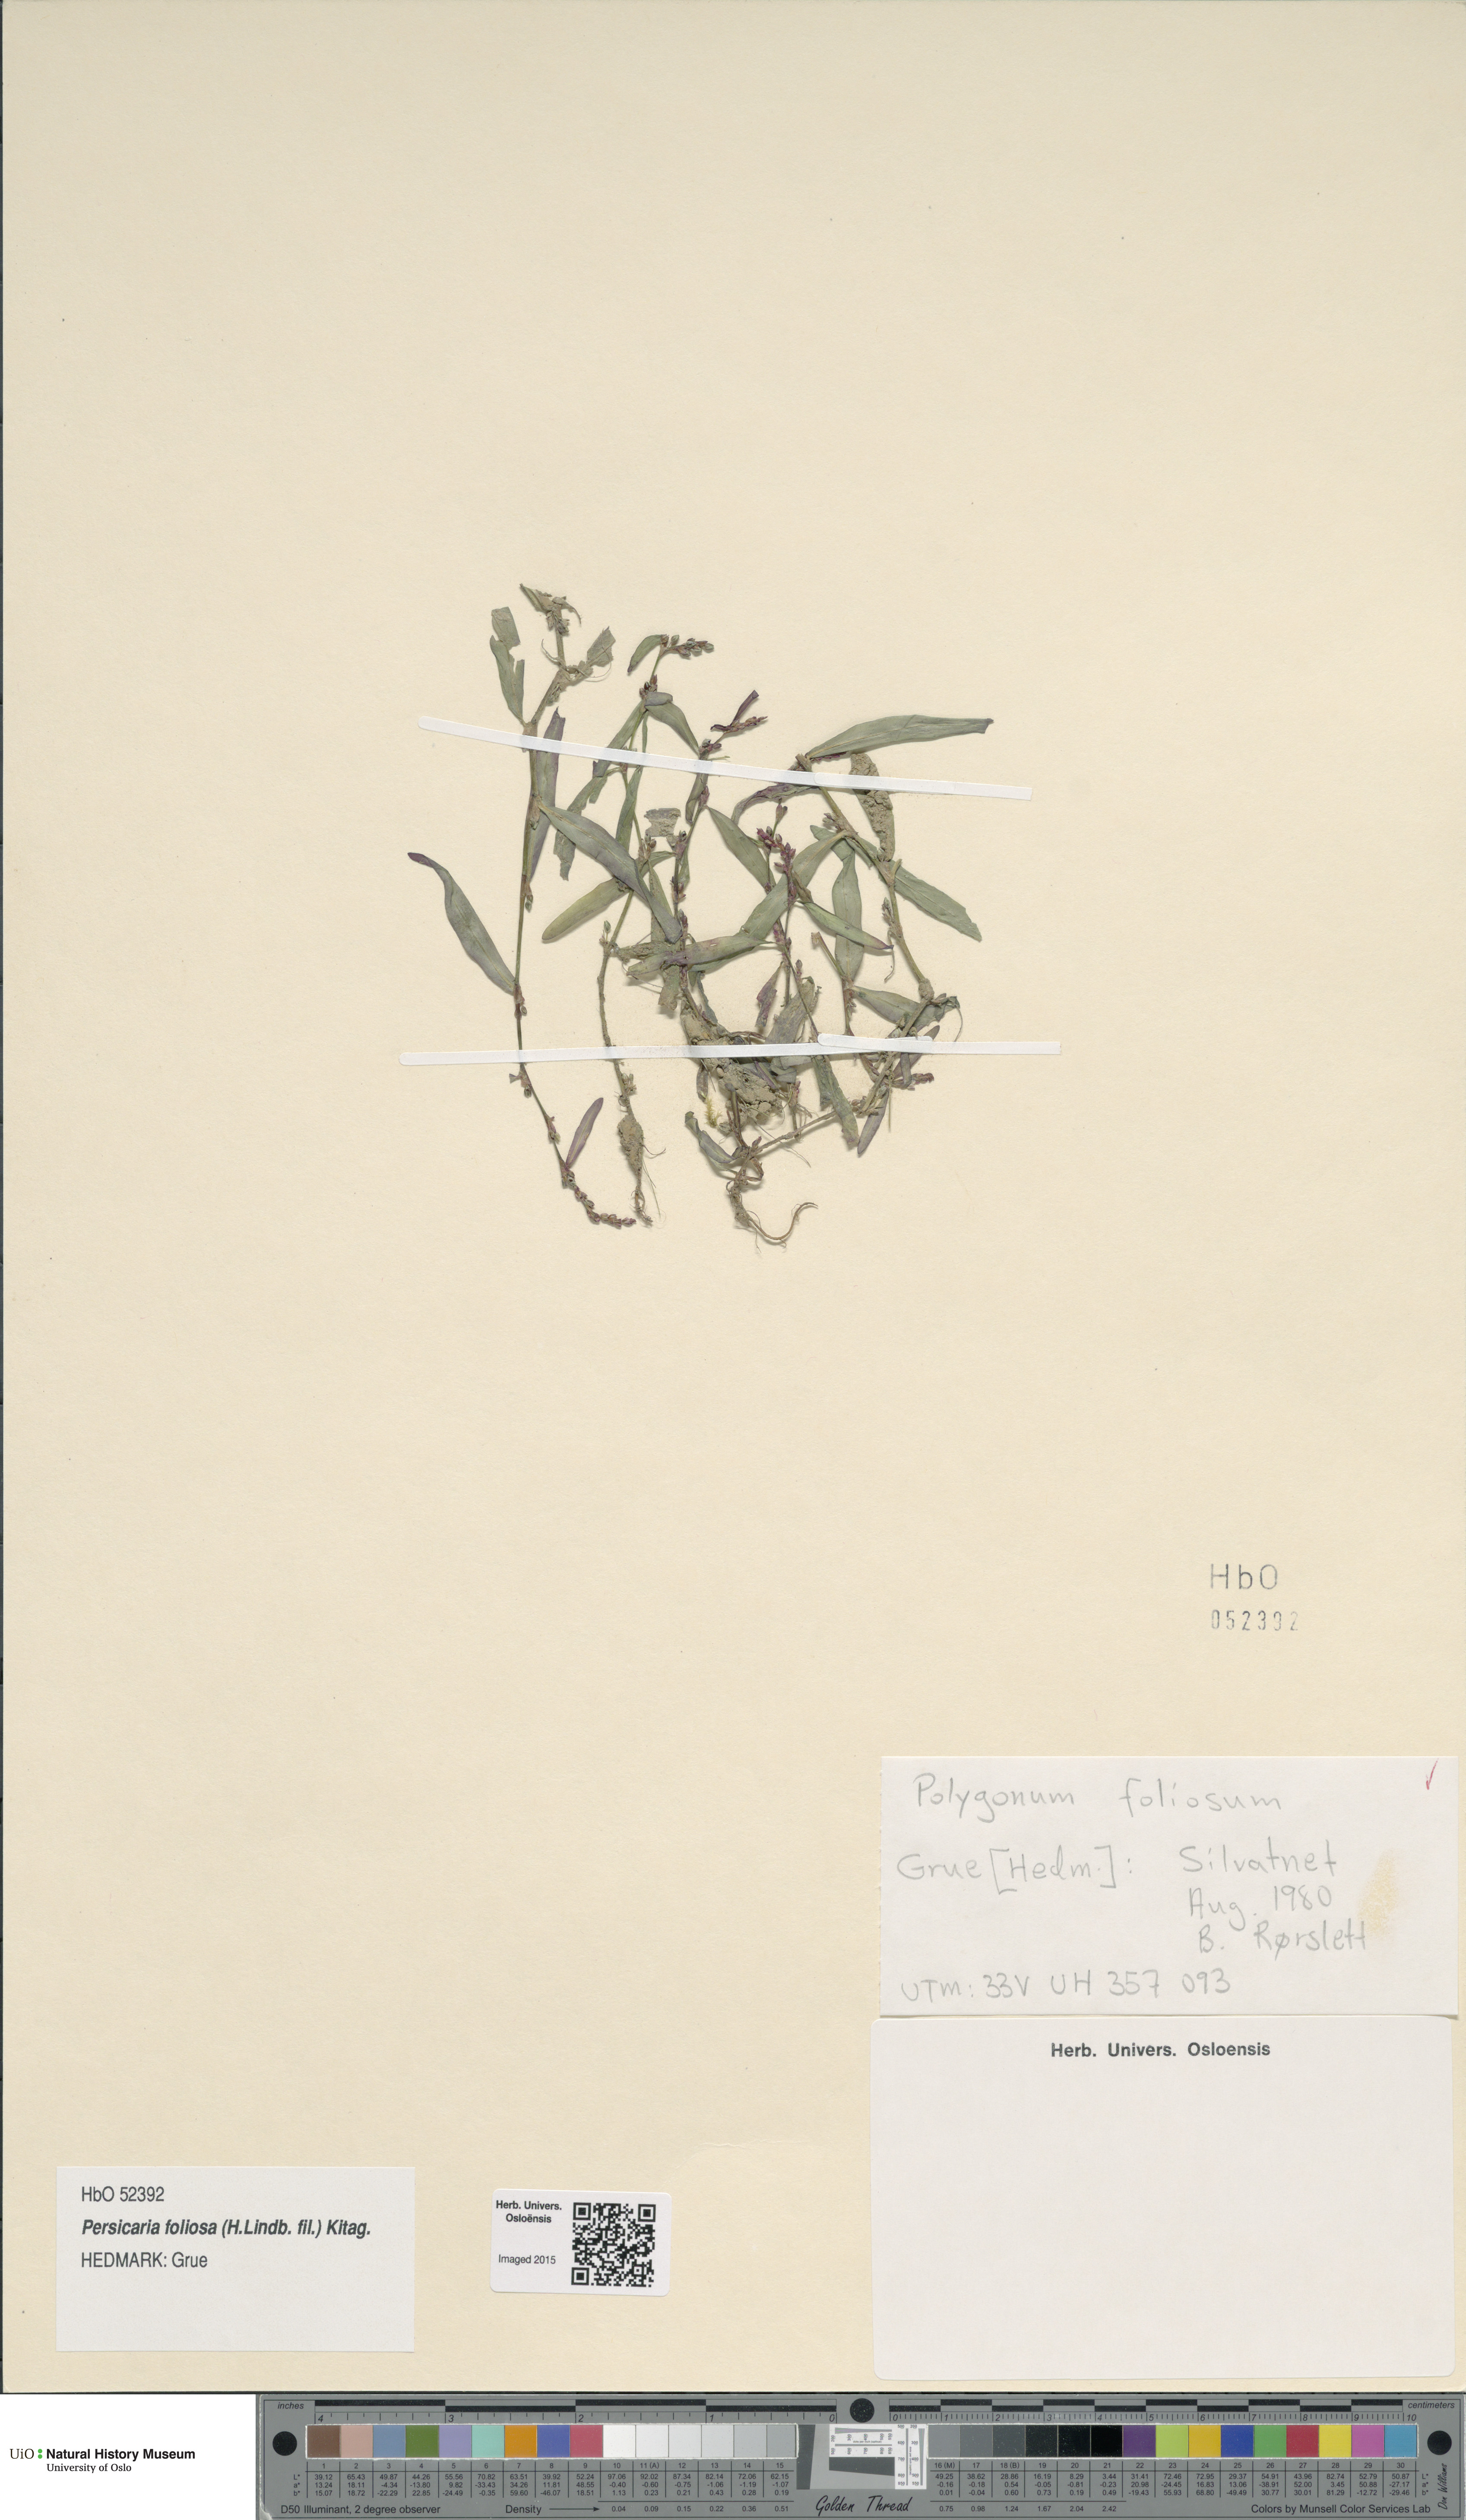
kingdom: Plantae
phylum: Tracheophyta
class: Magnoliopsida
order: Caryophyllales
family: Polygonaceae
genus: Persicaria
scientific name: Persicaria foliosa
